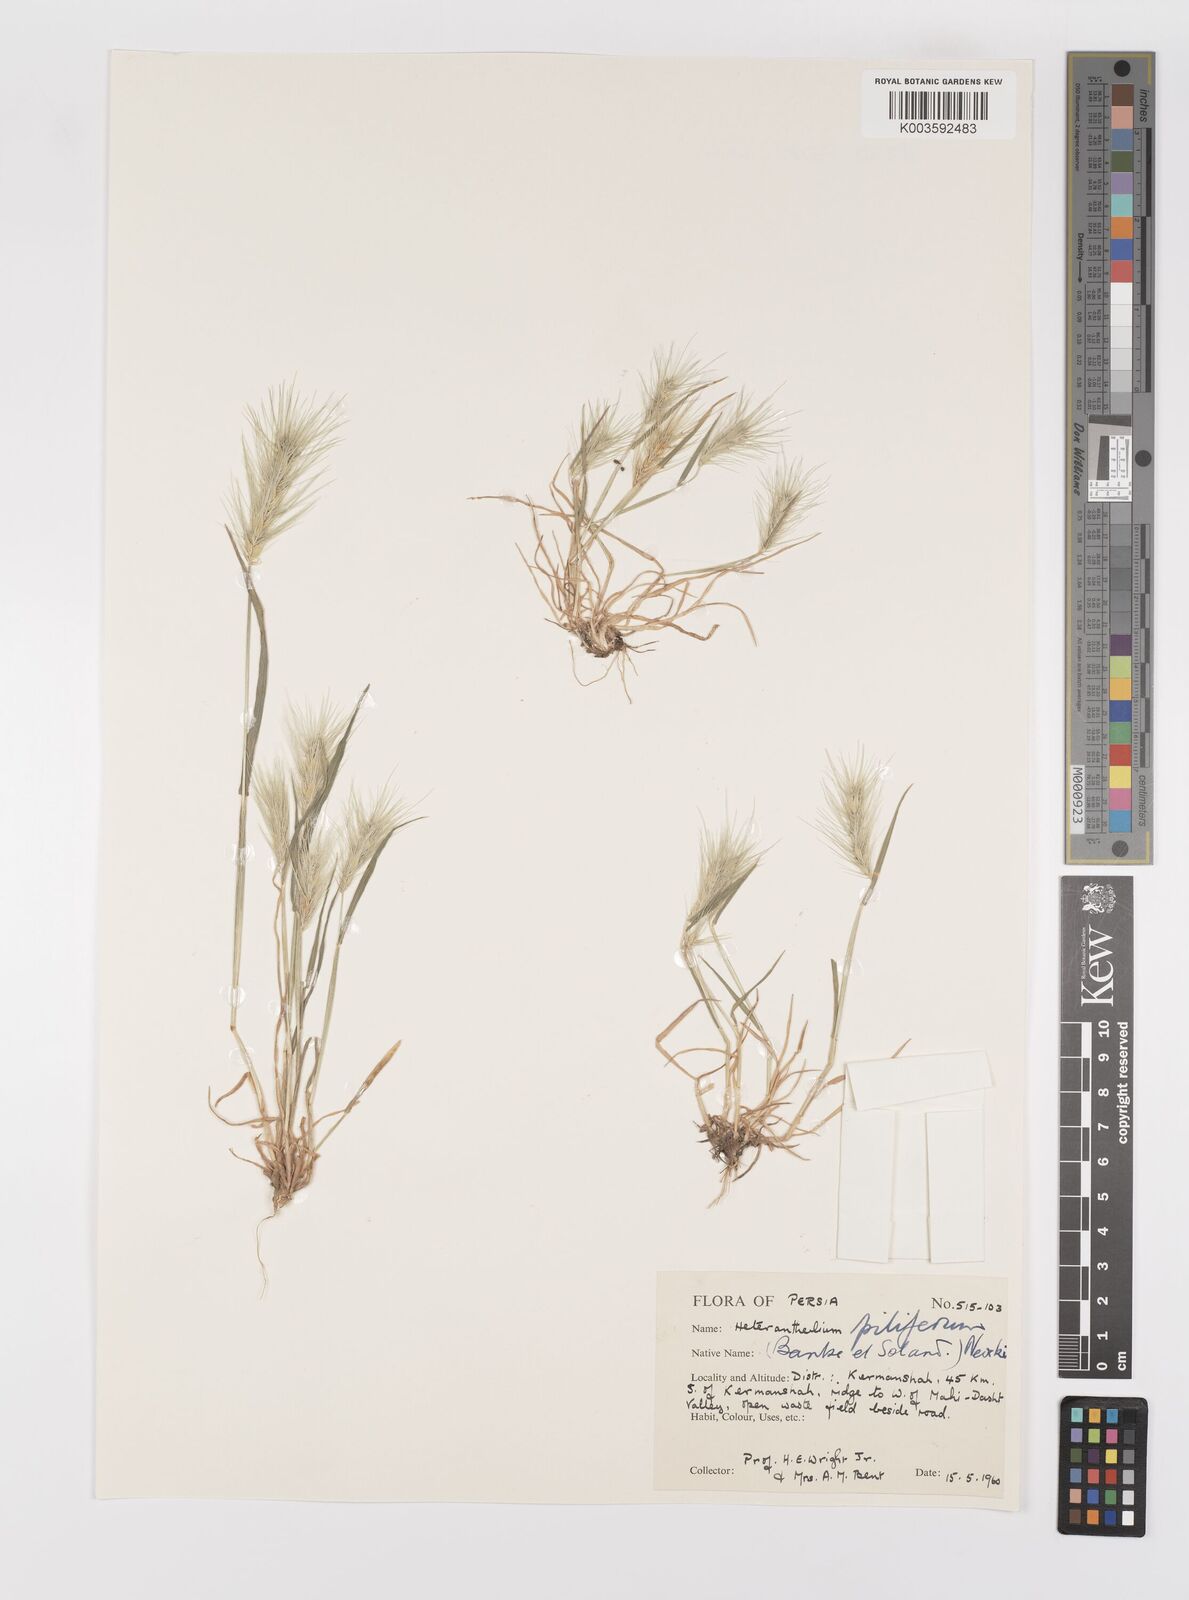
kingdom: Plantae
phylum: Tracheophyta
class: Liliopsida
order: Poales
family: Poaceae
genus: Heteranthelium
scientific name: Heteranthelium piliferum
